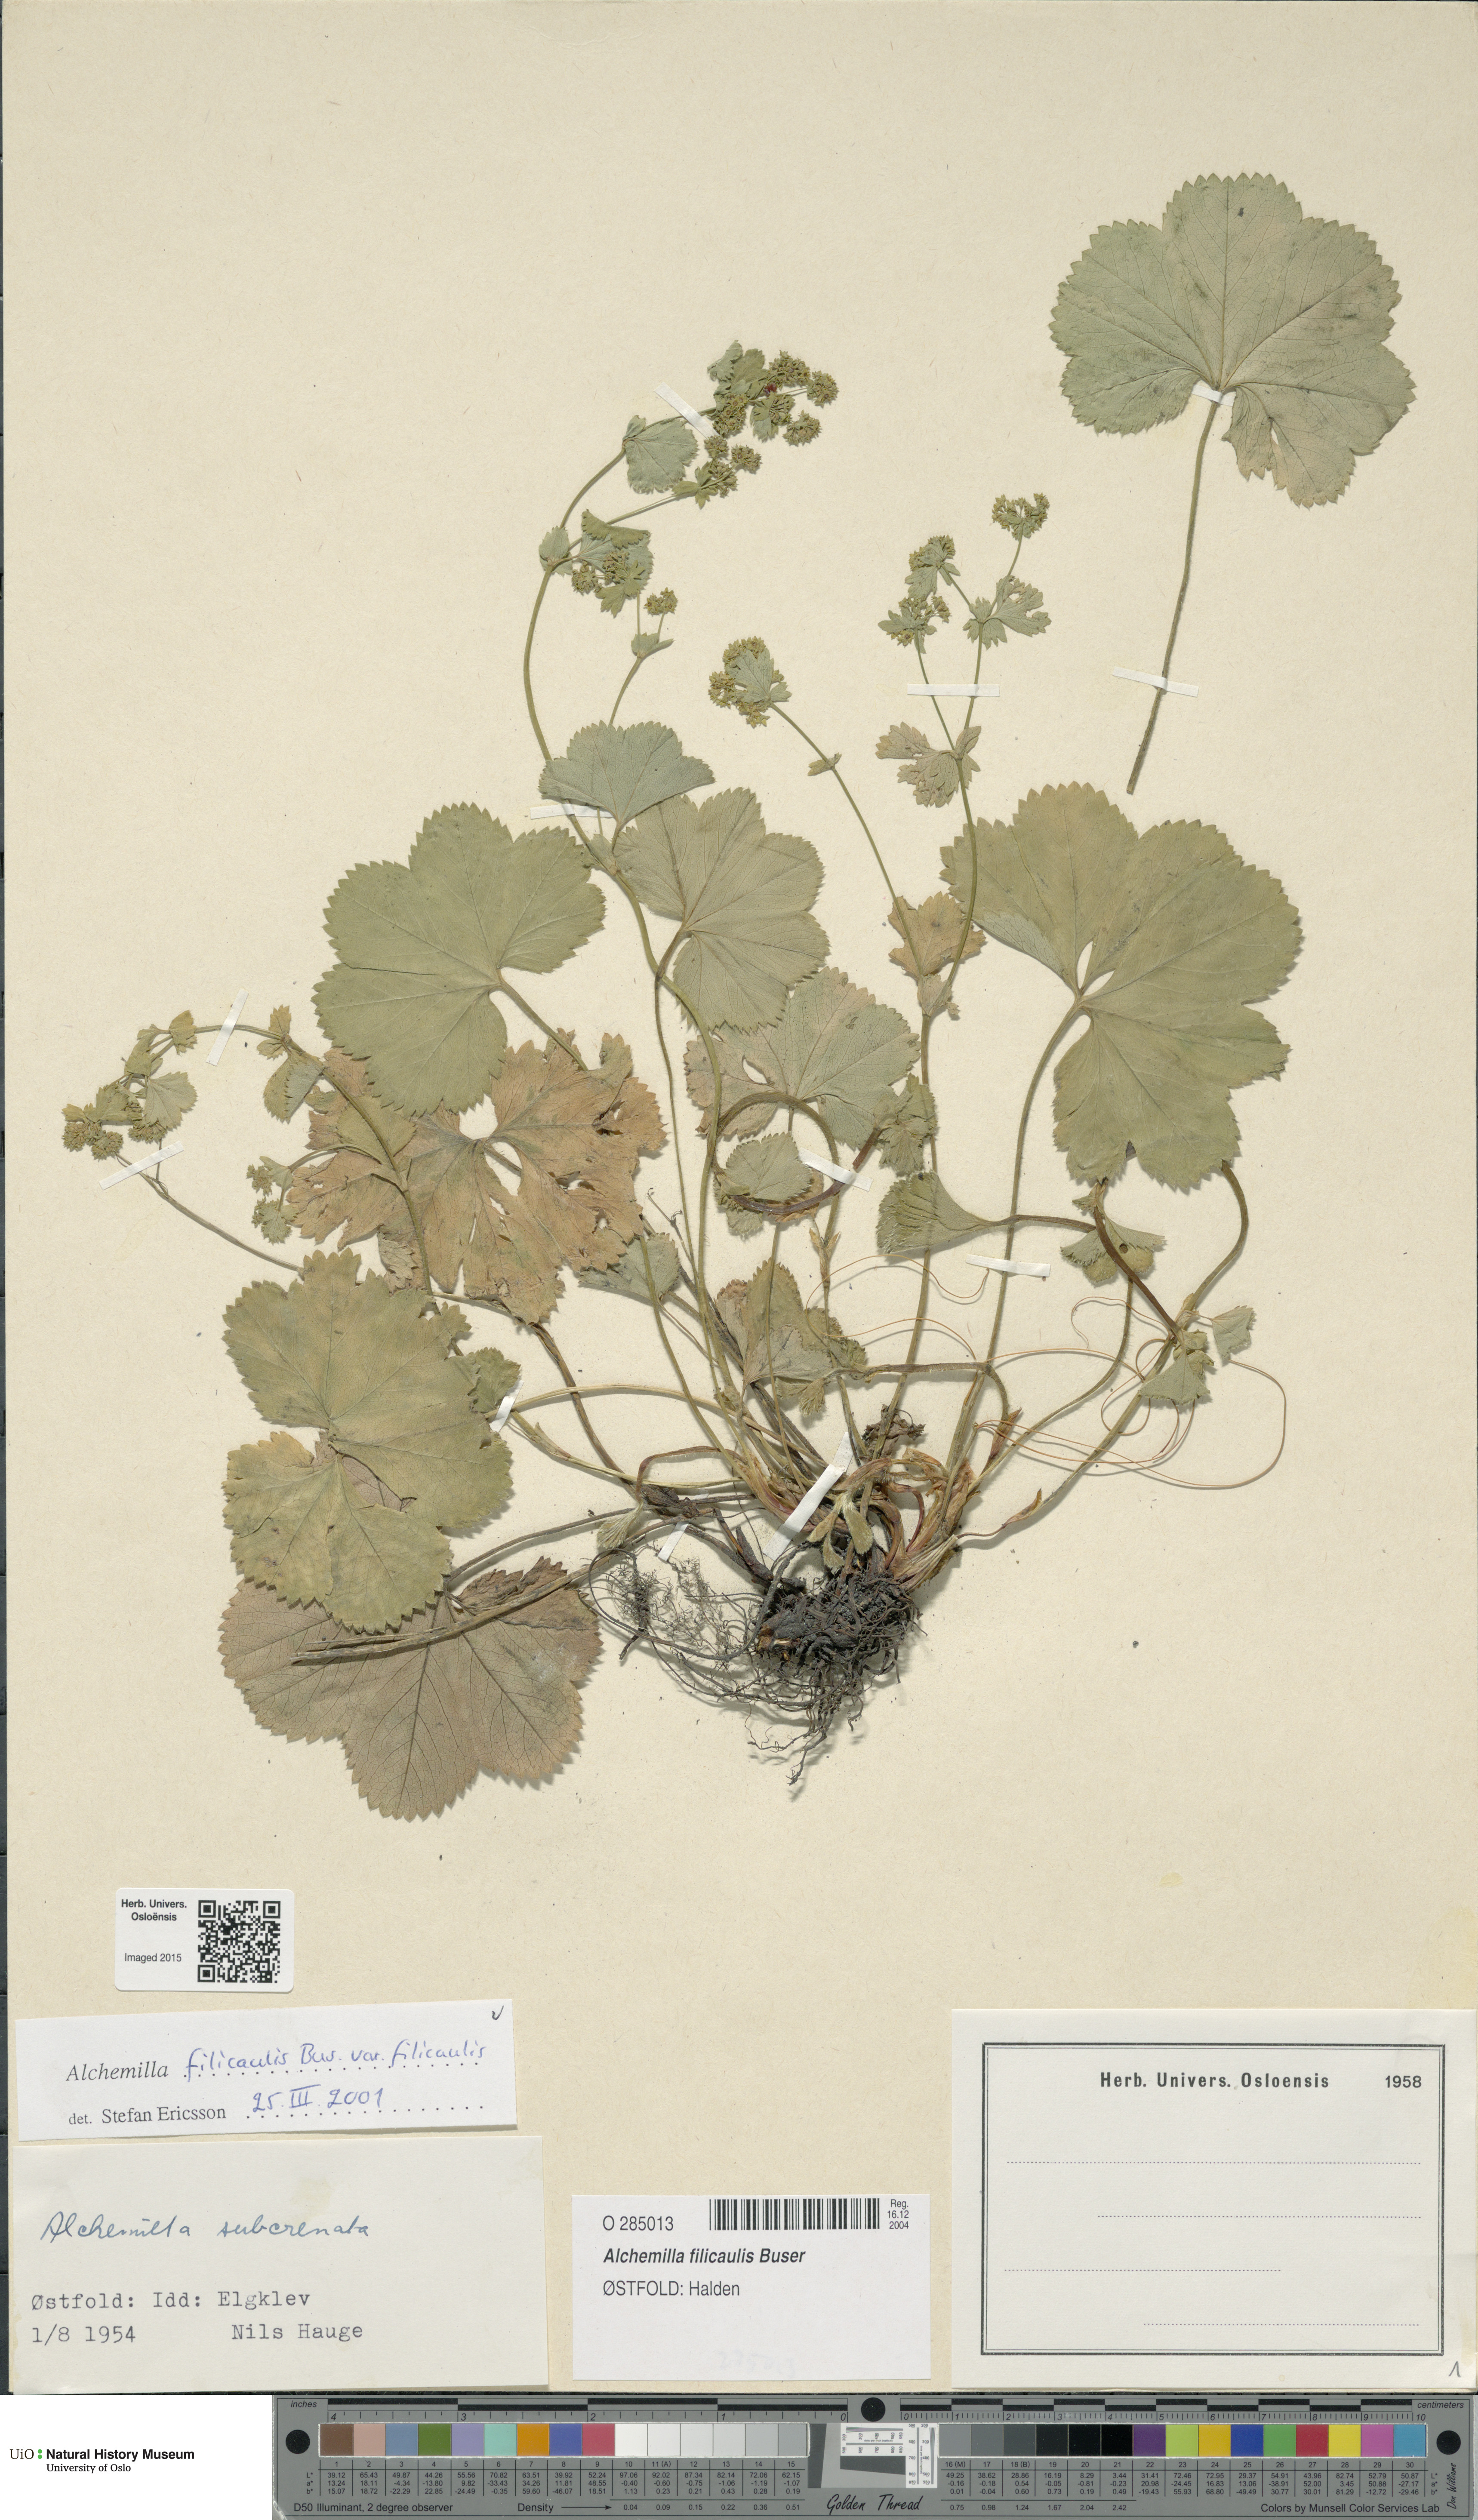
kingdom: Plantae
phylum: Tracheophyta
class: Magnoliopsida
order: Rosales
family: Rosaceae
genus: Alchemilla
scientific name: Alchemilla filicaulis
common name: Hairy lady's-mantle
